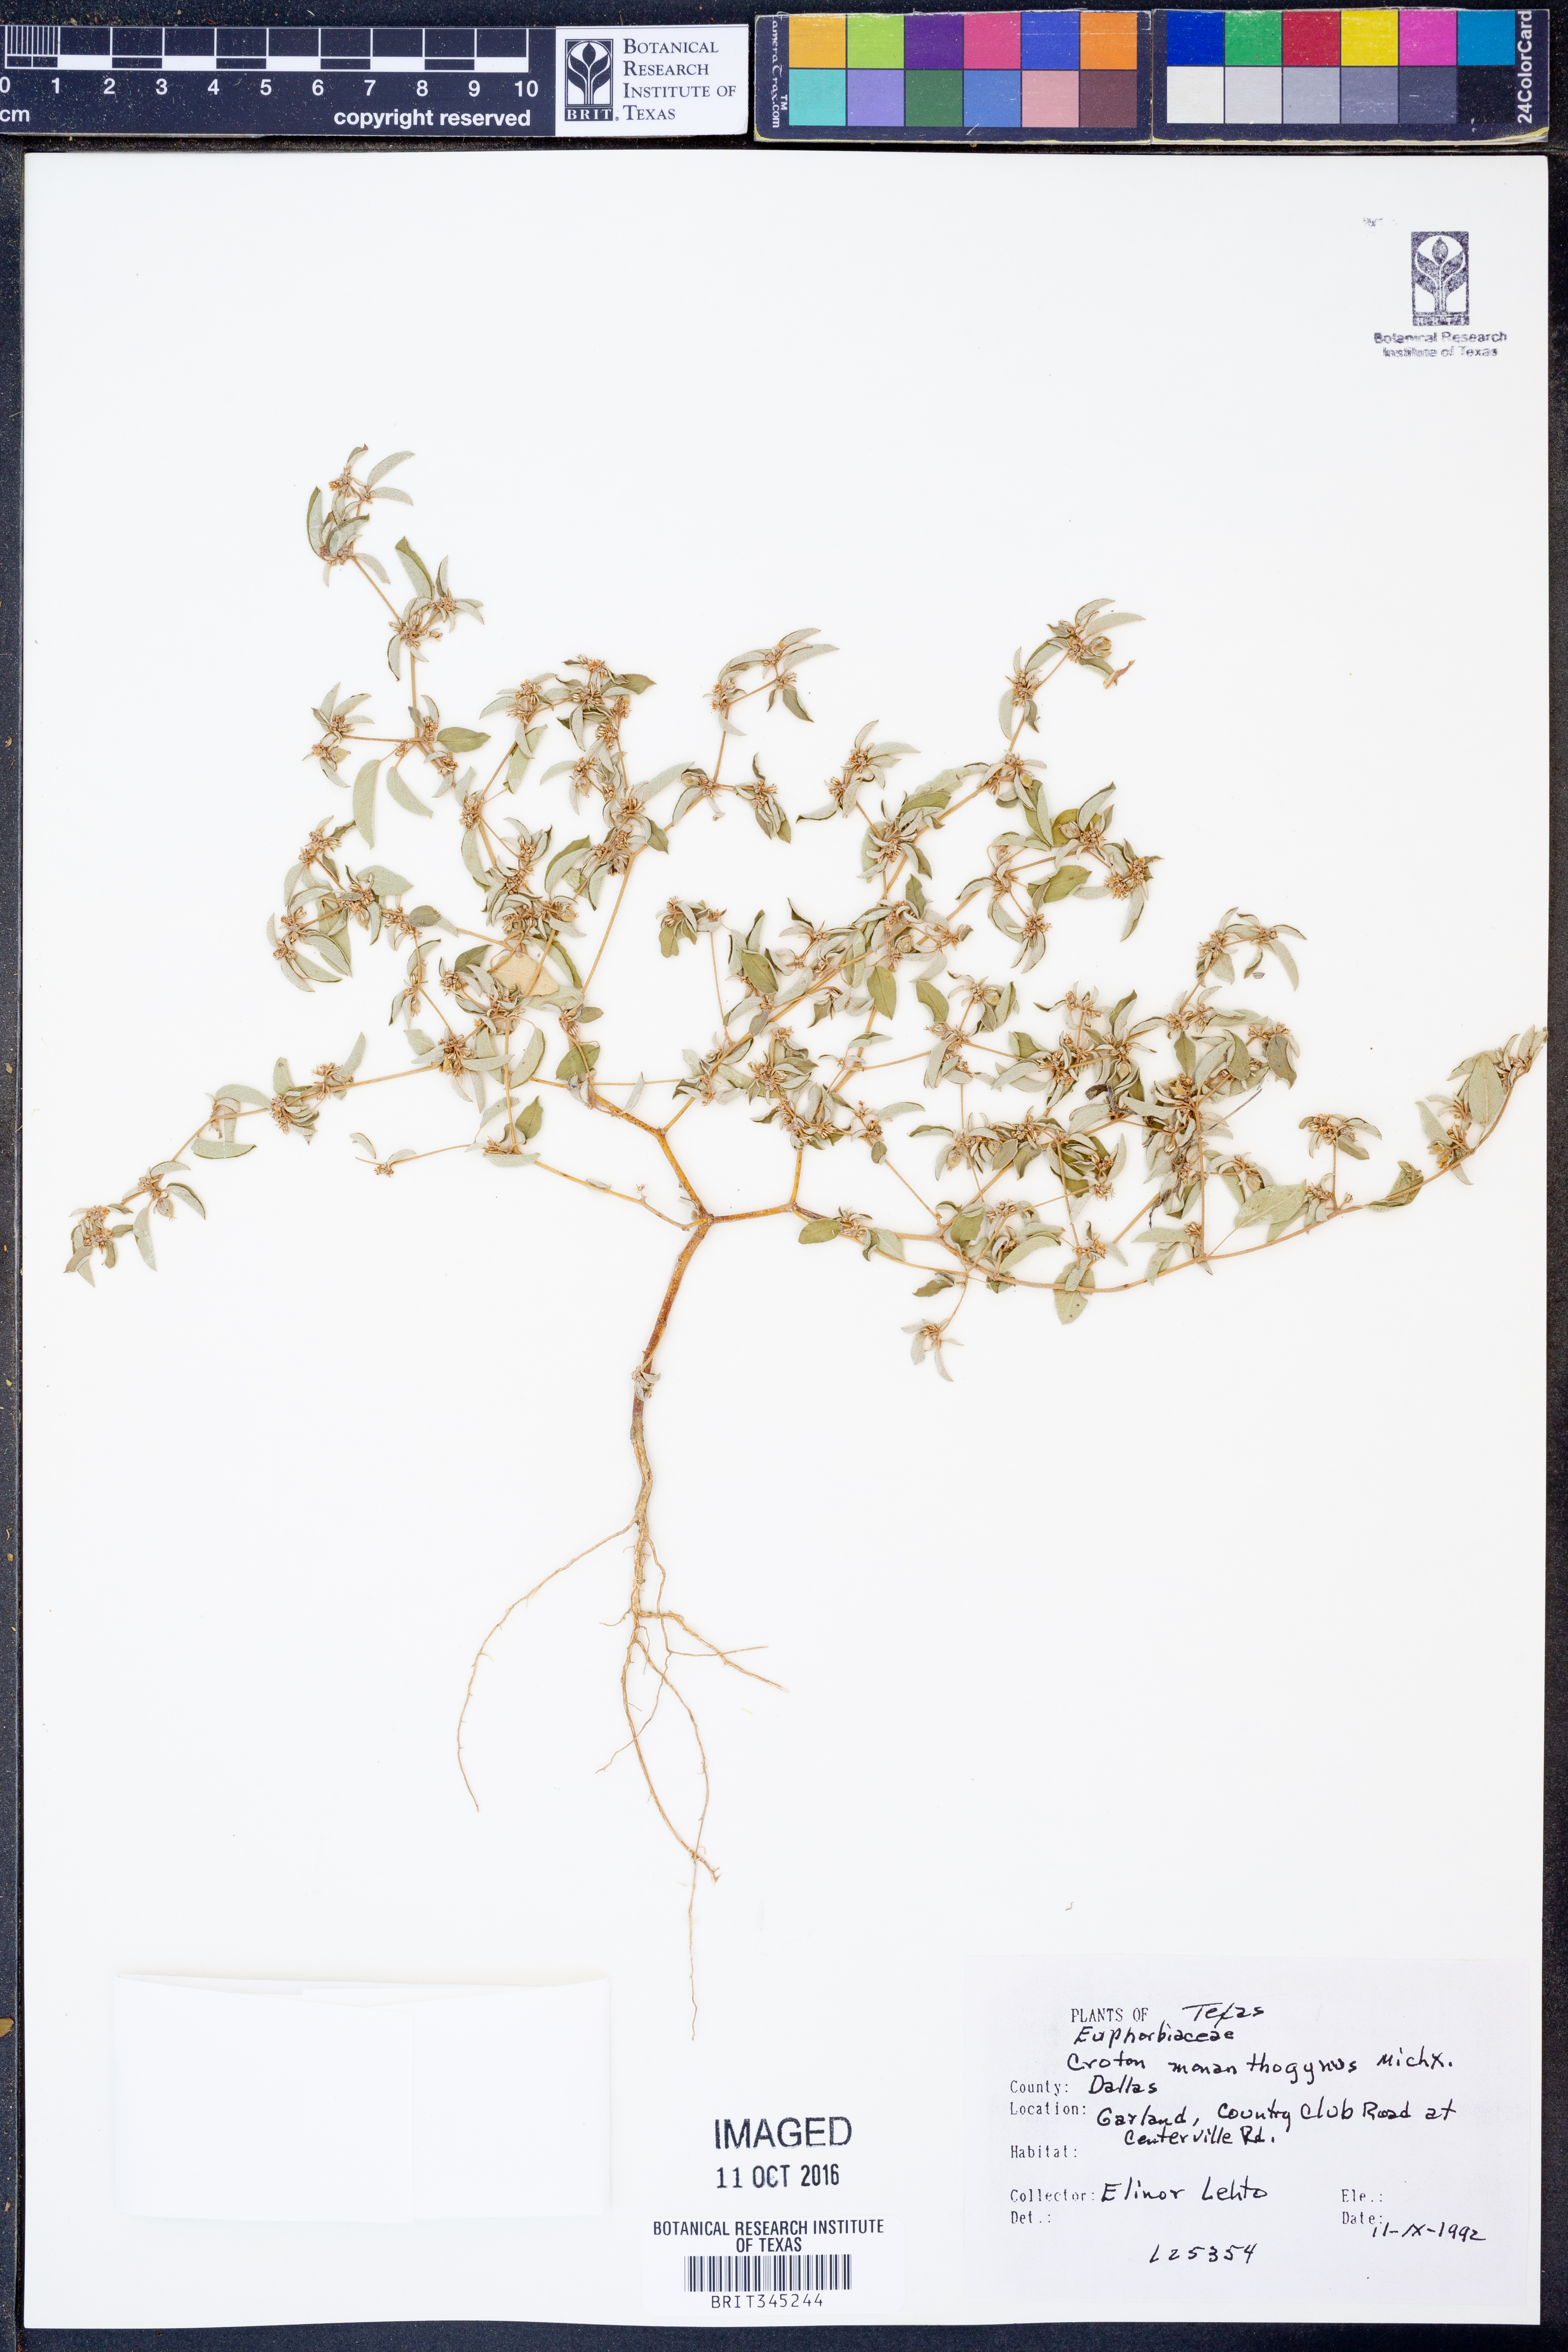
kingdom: Plantae
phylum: Tracheophyta
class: Magnoliopsida
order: Malpighiales
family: Euphorbiaceae
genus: Croton
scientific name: Croton monanthogynus
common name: One-seed croton
